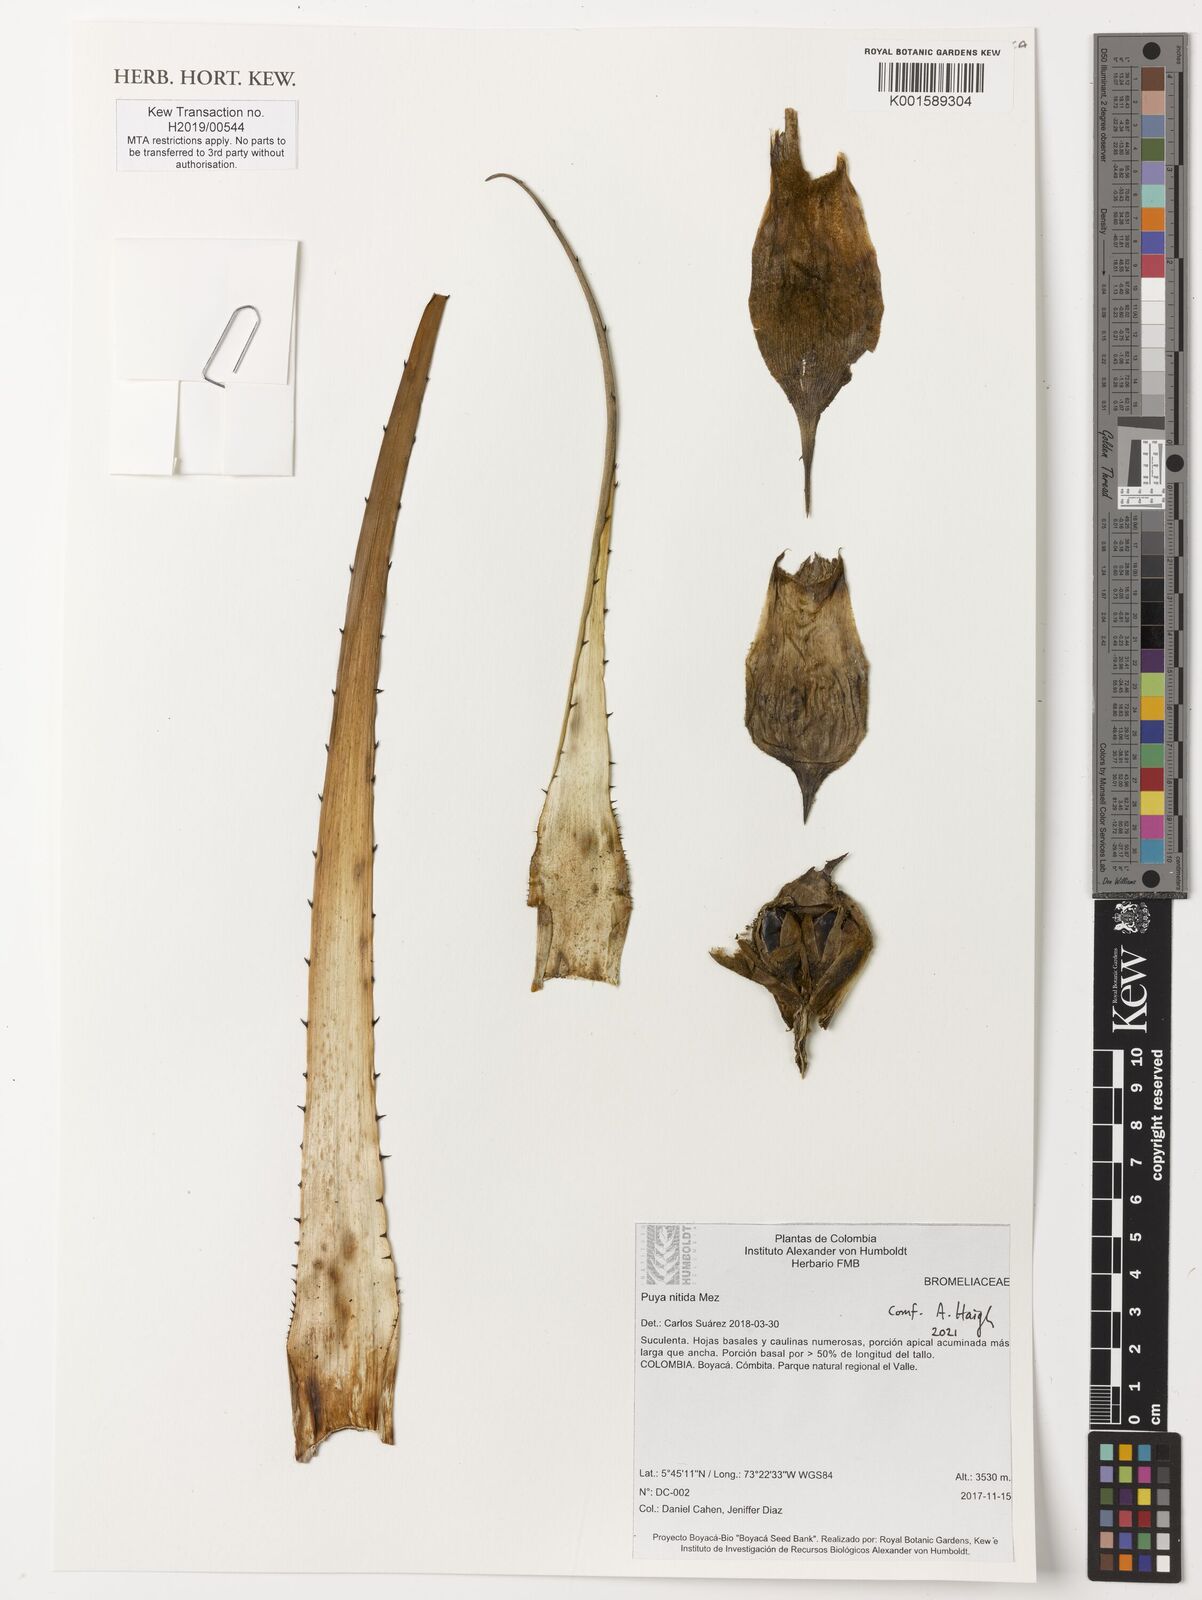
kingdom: Plantae
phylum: Tracheophyta
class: Liliopsida
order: Poales
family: Bromeliaceae
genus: Puya
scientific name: Puya nitida
